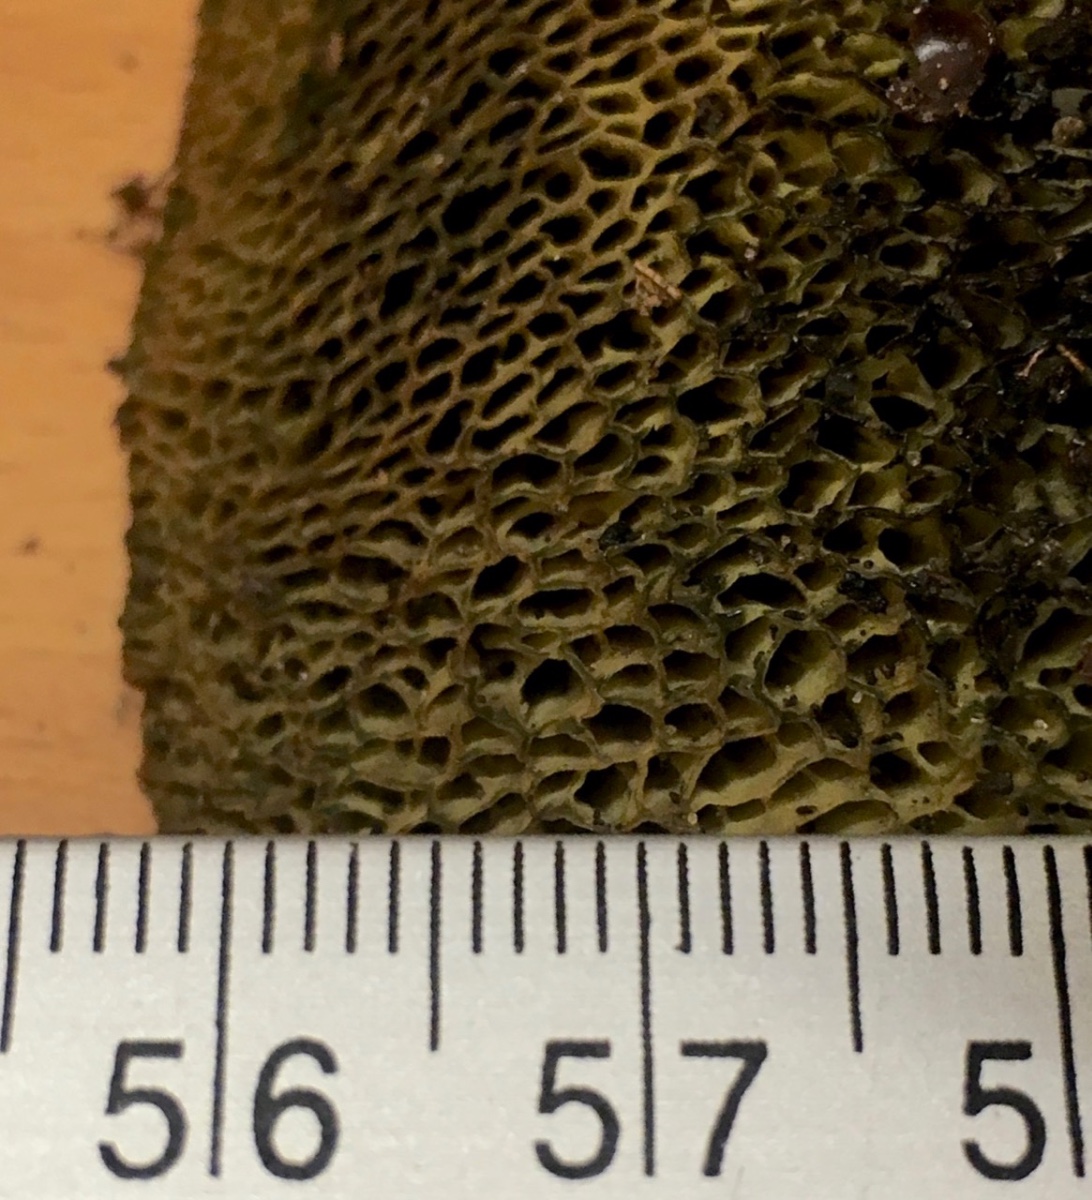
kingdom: Fungi
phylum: Basidiomycota
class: Agaricomycetes
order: Boletales
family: Boletaceae
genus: Xerocomellus
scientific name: Xerocomellus porosporus
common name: hvidsprukken rørhat
